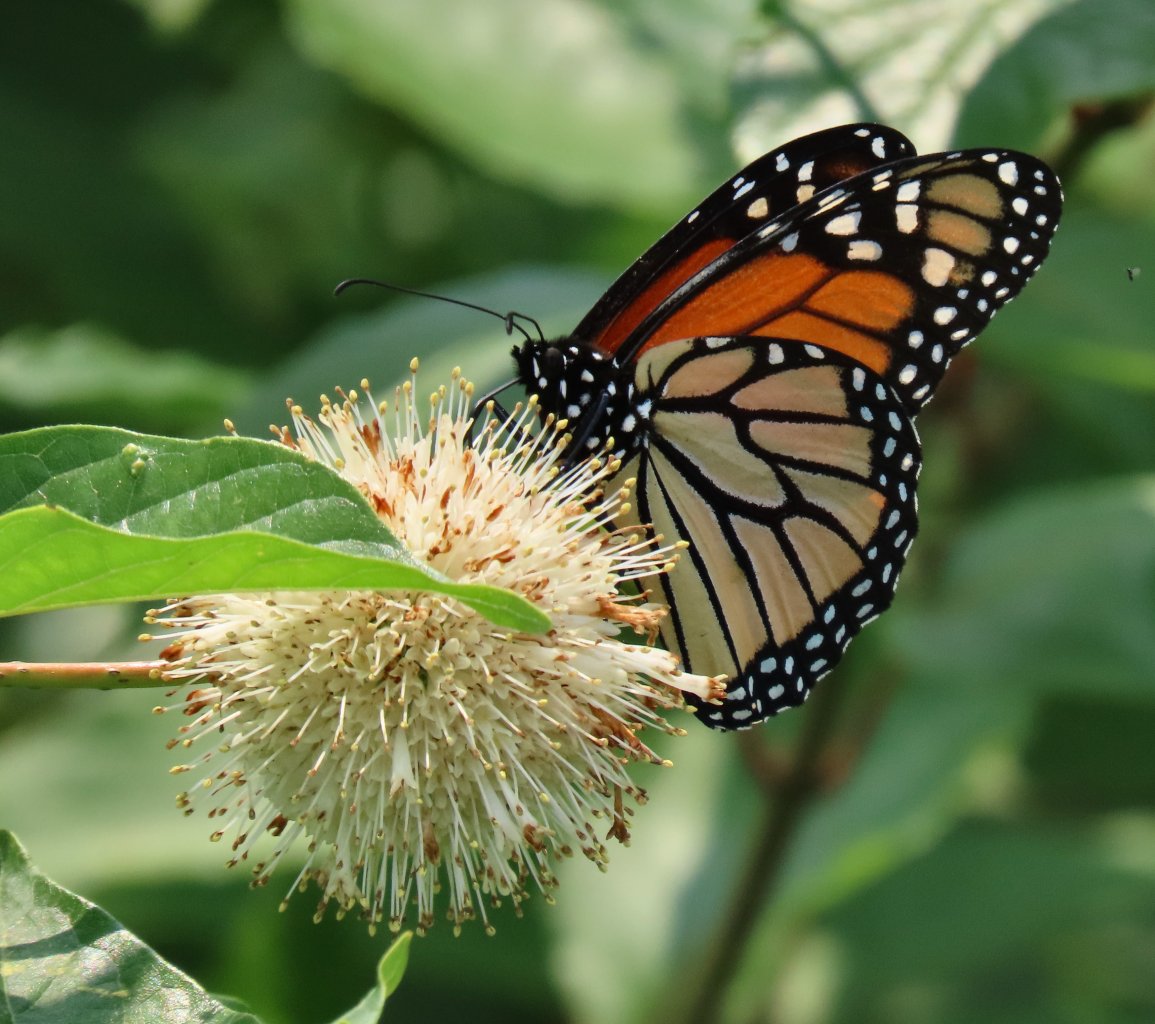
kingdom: Animalia
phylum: Arthropoda
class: Insecta
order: Lepidoptera
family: Nymphalidae
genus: Danaus
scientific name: Danaus plexippus
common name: Monarch
